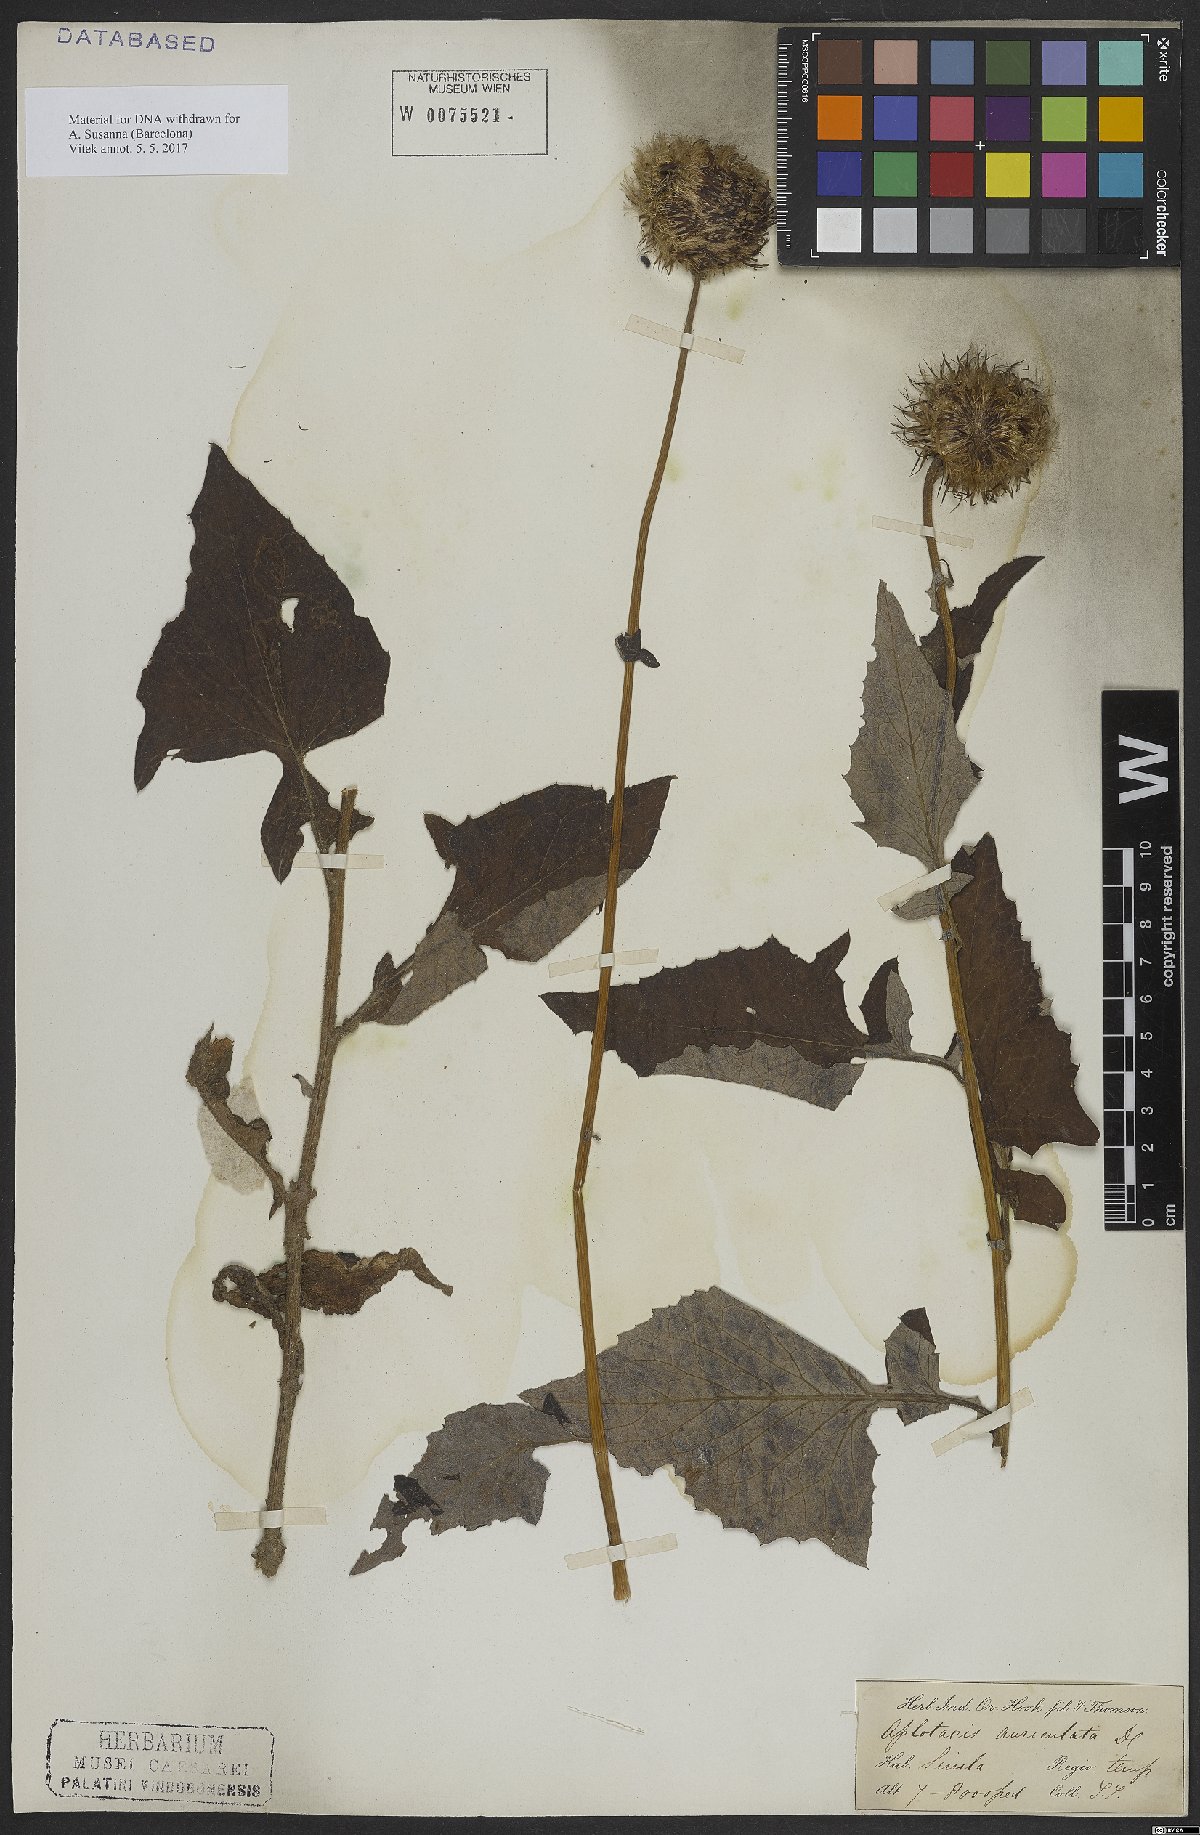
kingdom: Plantae
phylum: Tracheophyta
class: Magnoliopsida
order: Asterales
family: Asteraceae
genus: Jurinea
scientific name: Jurinea auriculata
